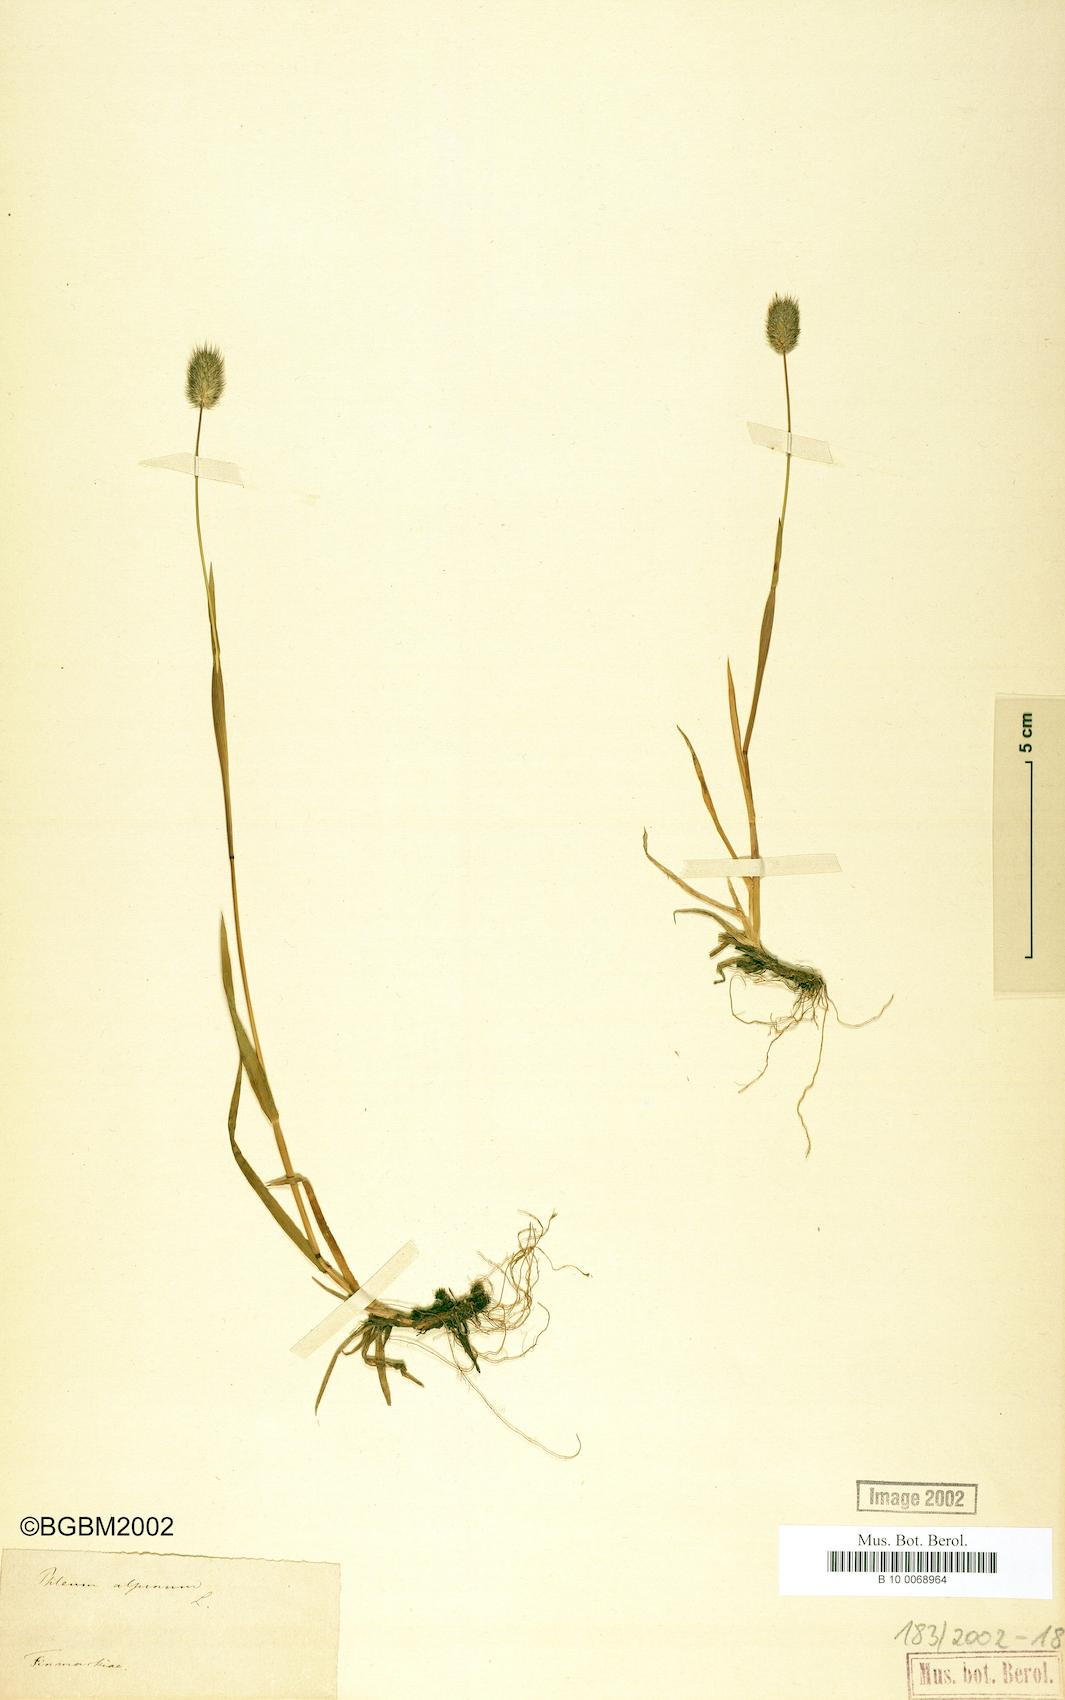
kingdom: Plantae
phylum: Tracheophyta
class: Liliopsida
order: Poales
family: Poaceae
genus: Phleum
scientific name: Phleum alpinum
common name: Alpine cat's-tail
